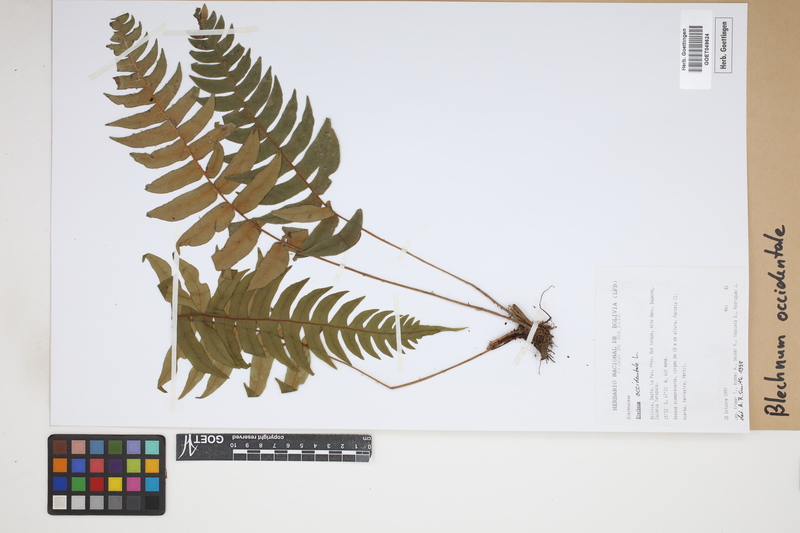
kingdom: Plantae
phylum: Tracheophyta
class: Polypodiopsida
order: Polypodiales
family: Blechnaceae
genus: Blechnum
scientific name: Blechnum occidentale
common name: Hammock fern
